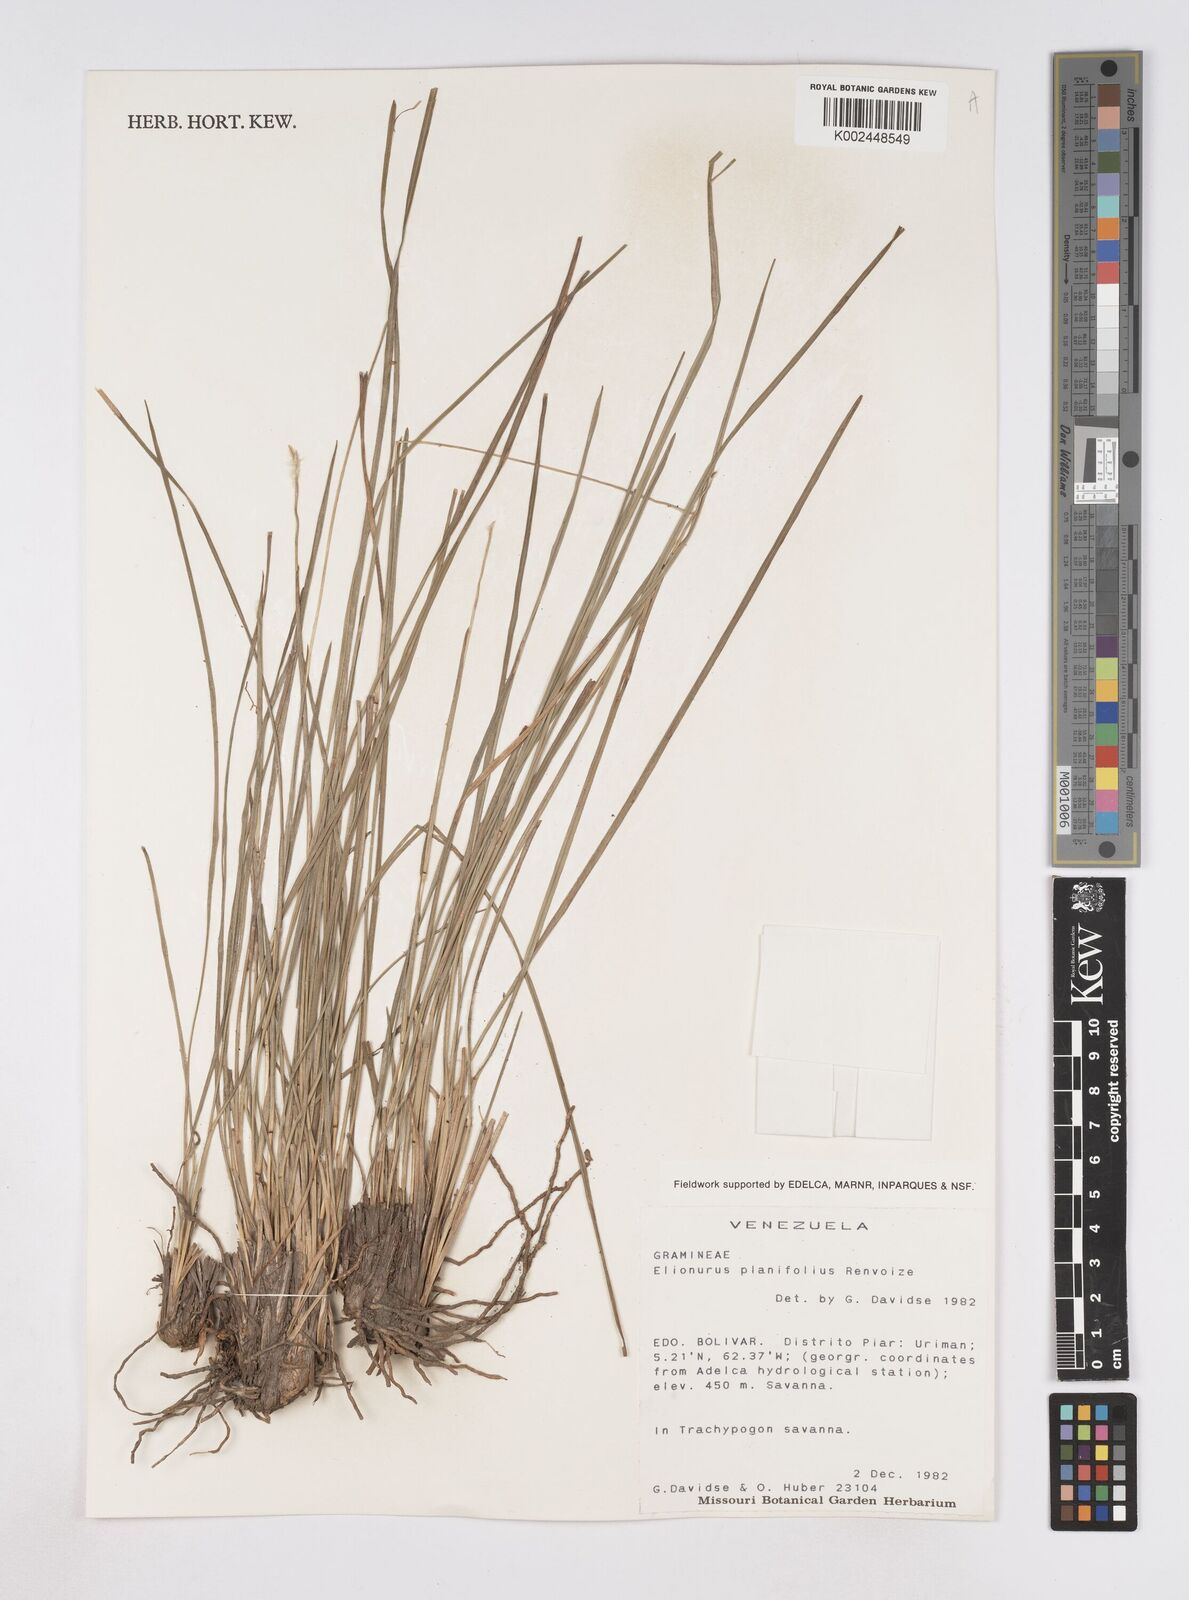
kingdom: Plantae
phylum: Tracheophyta
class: Liliopsida
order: Poales
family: Poaceae
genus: Elionurus
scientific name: Elionurus planifolius
